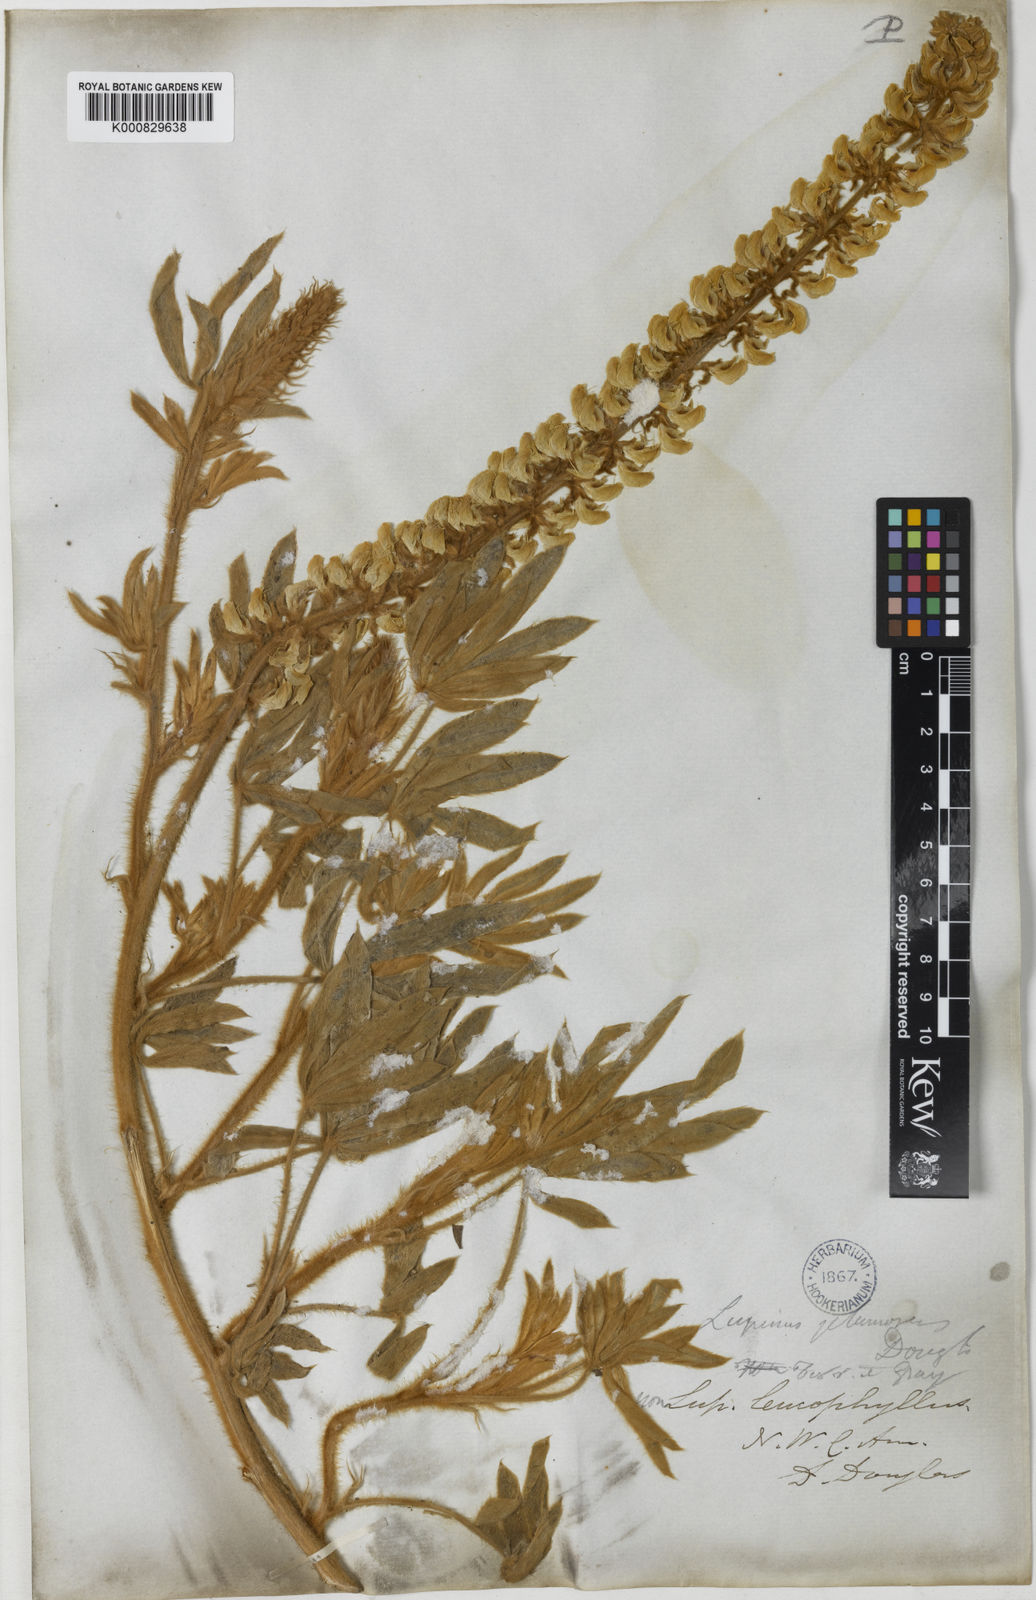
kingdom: Plantae
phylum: Tracheophyta
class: Magnoliopsida
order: Fabales
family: Fabaceae
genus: Lupinus
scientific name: Lupinus leucophyllus
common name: Woolly-leaf lupine
